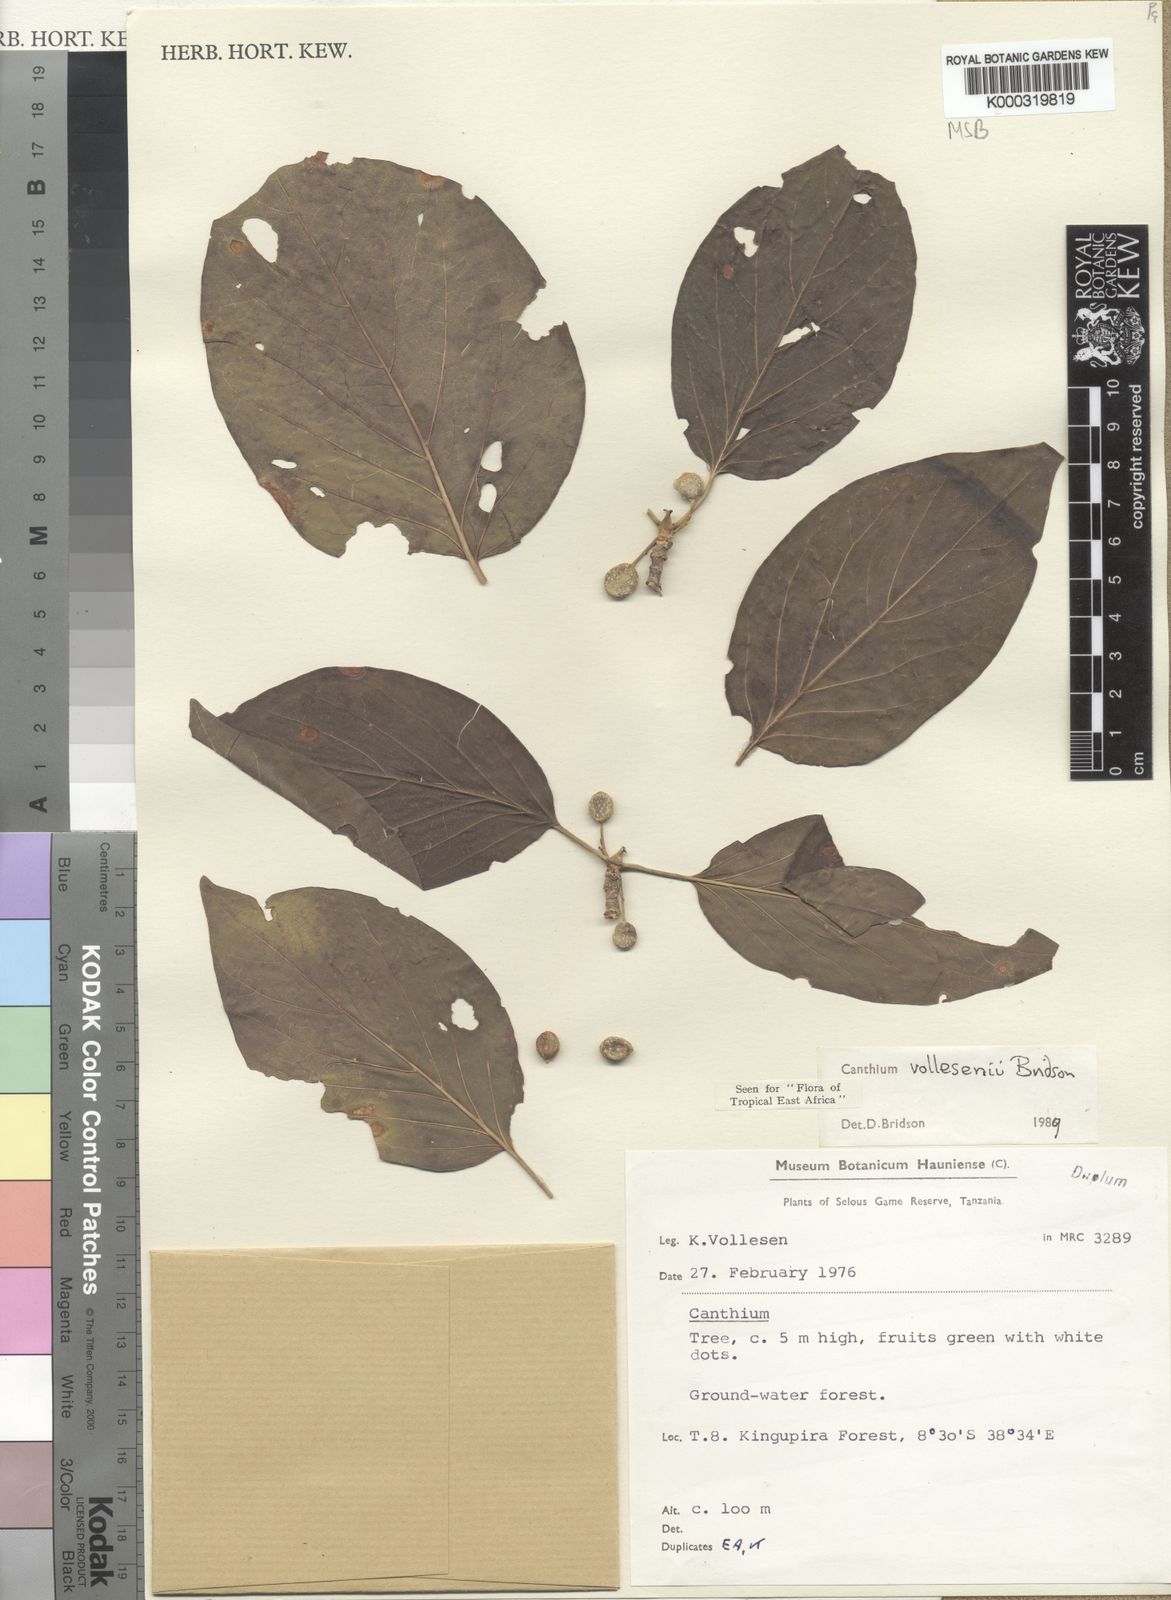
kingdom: Plantae
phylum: Tracheophyta
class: Magnoliopsida
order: Gentianales
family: Rubiaceae
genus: Afrocanthium
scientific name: Afrocanthium vollesenii
